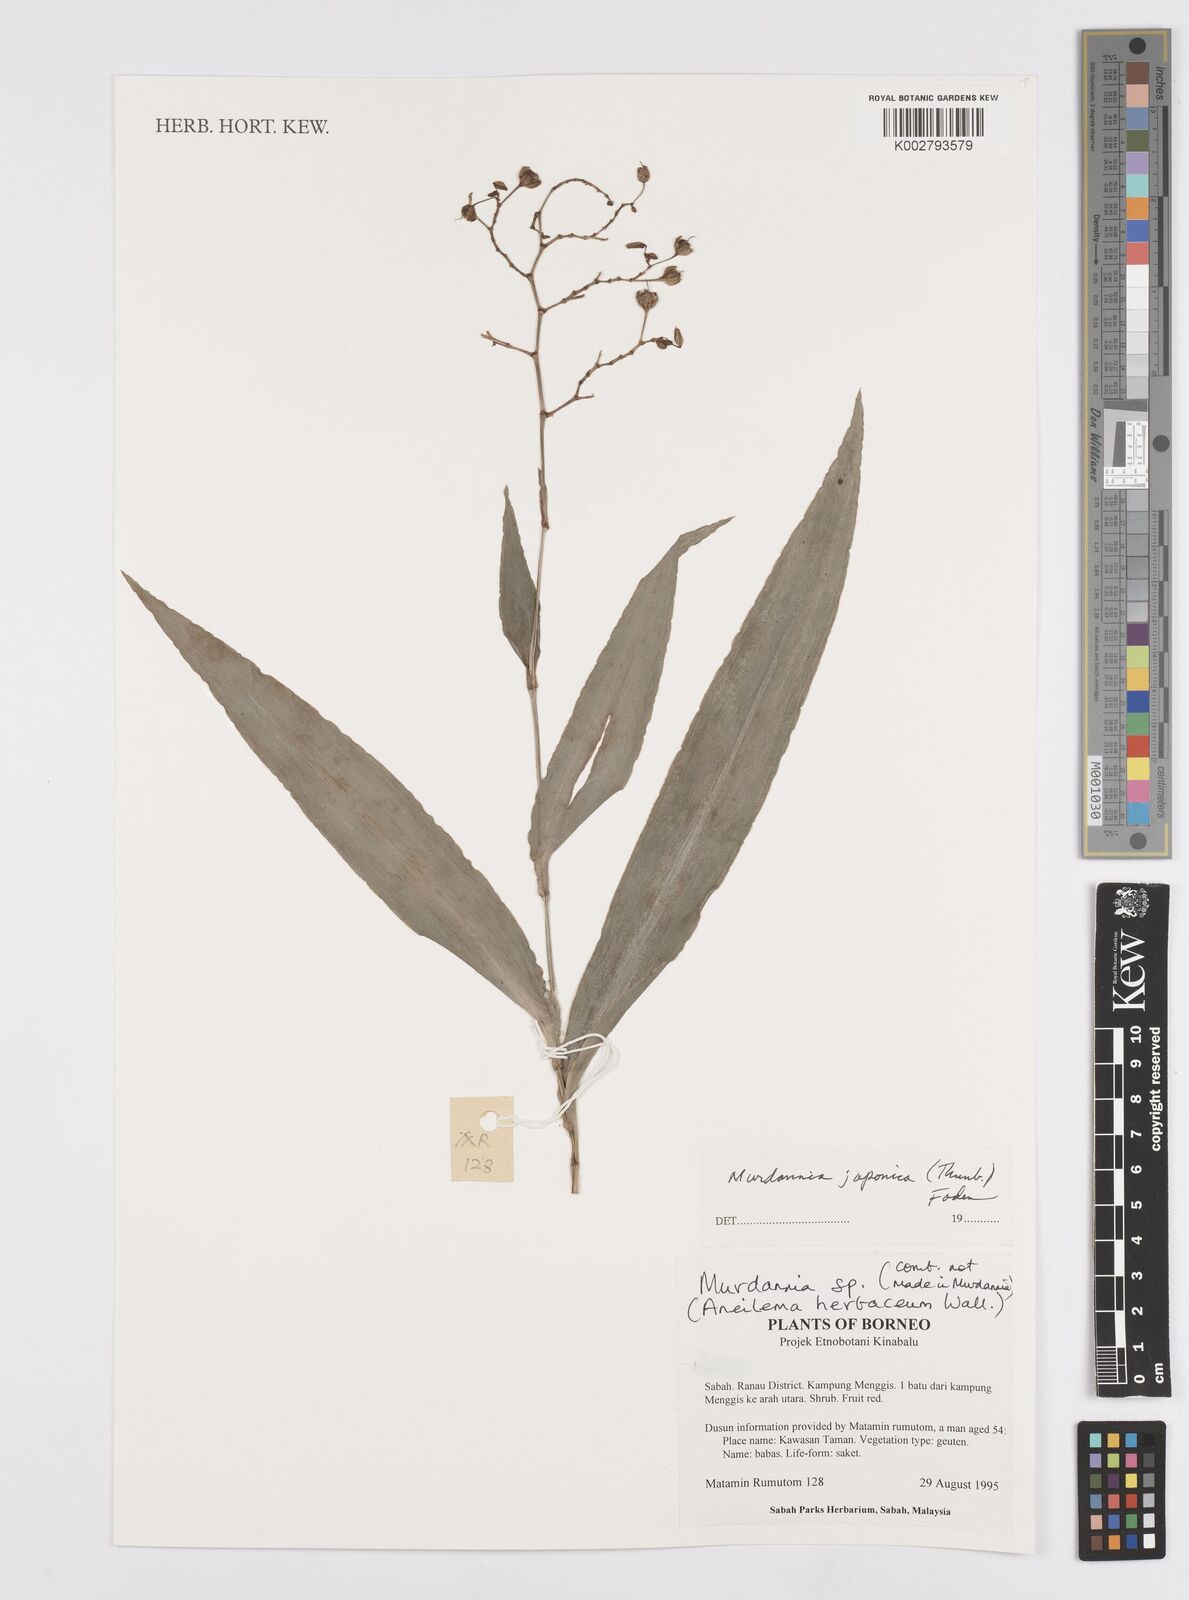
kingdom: Plantae
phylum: Tracheophyta
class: Liliopsida
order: Commelinales
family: Commelinaceae
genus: Murdannia
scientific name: Murdannia japonica
